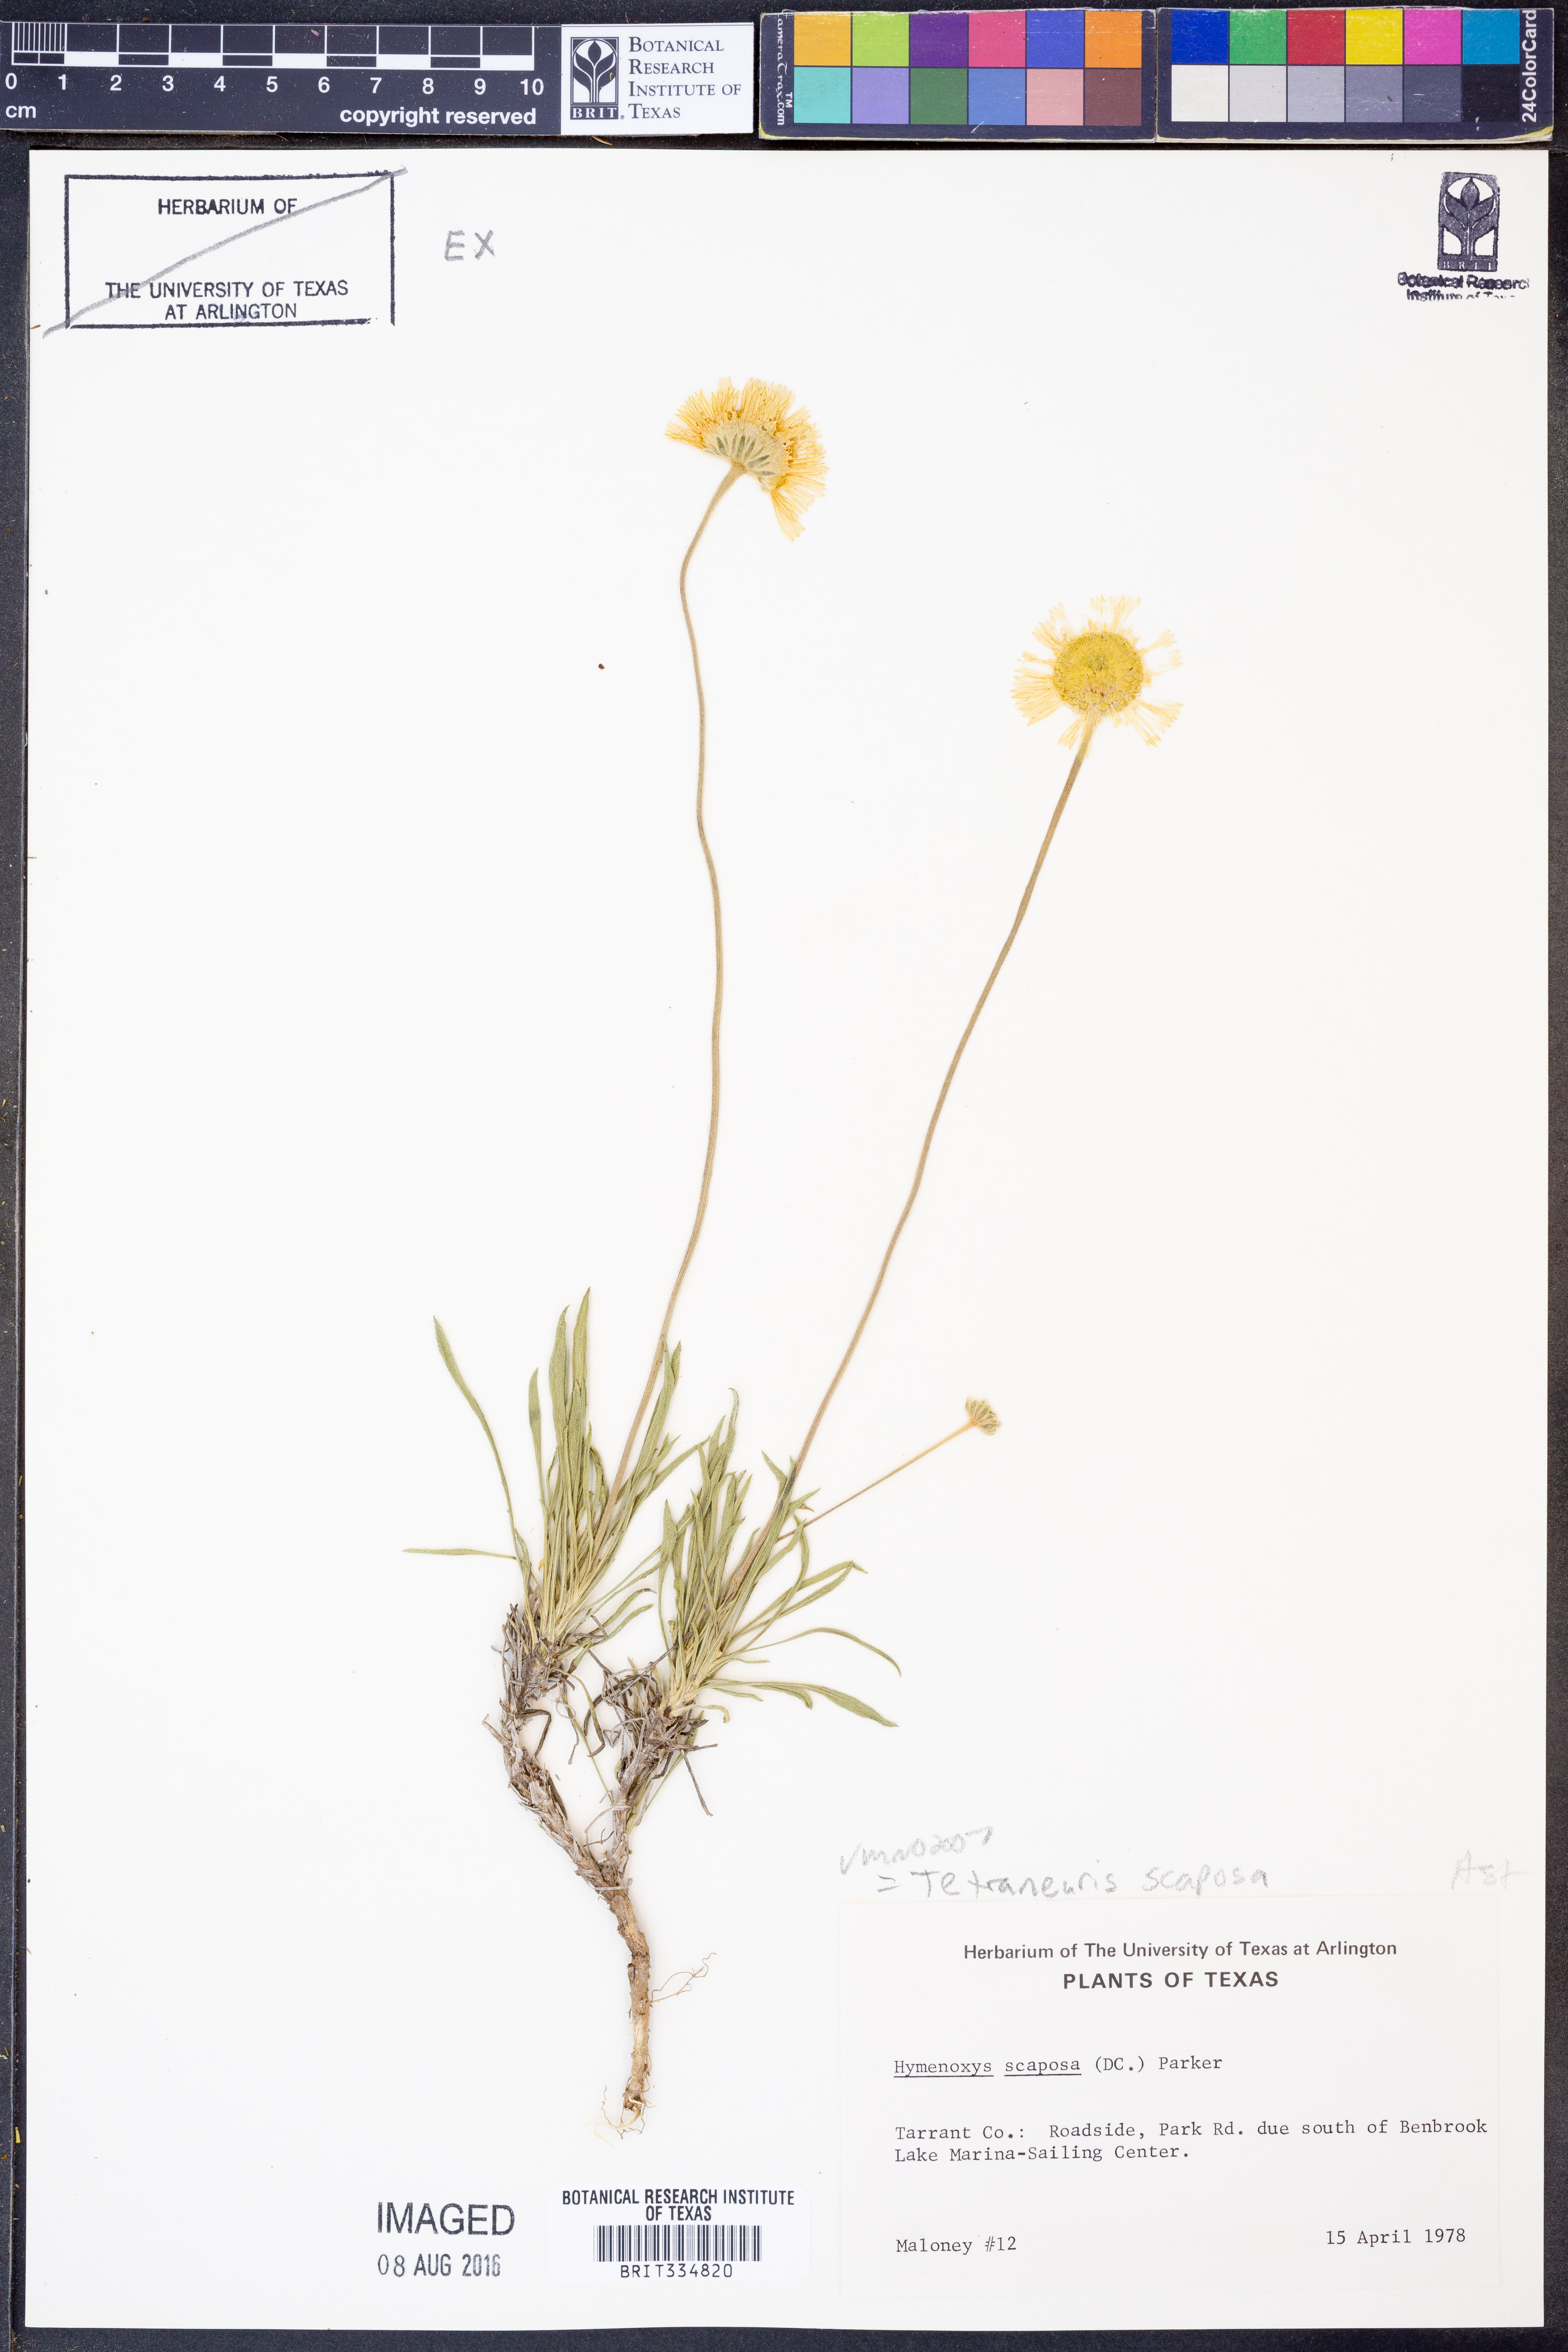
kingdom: Plantae
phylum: Tracheophyta
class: Magnoliopsida
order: Asterales
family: Asteraceae
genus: Tetraneuris
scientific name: Tetraneuris scaposa
